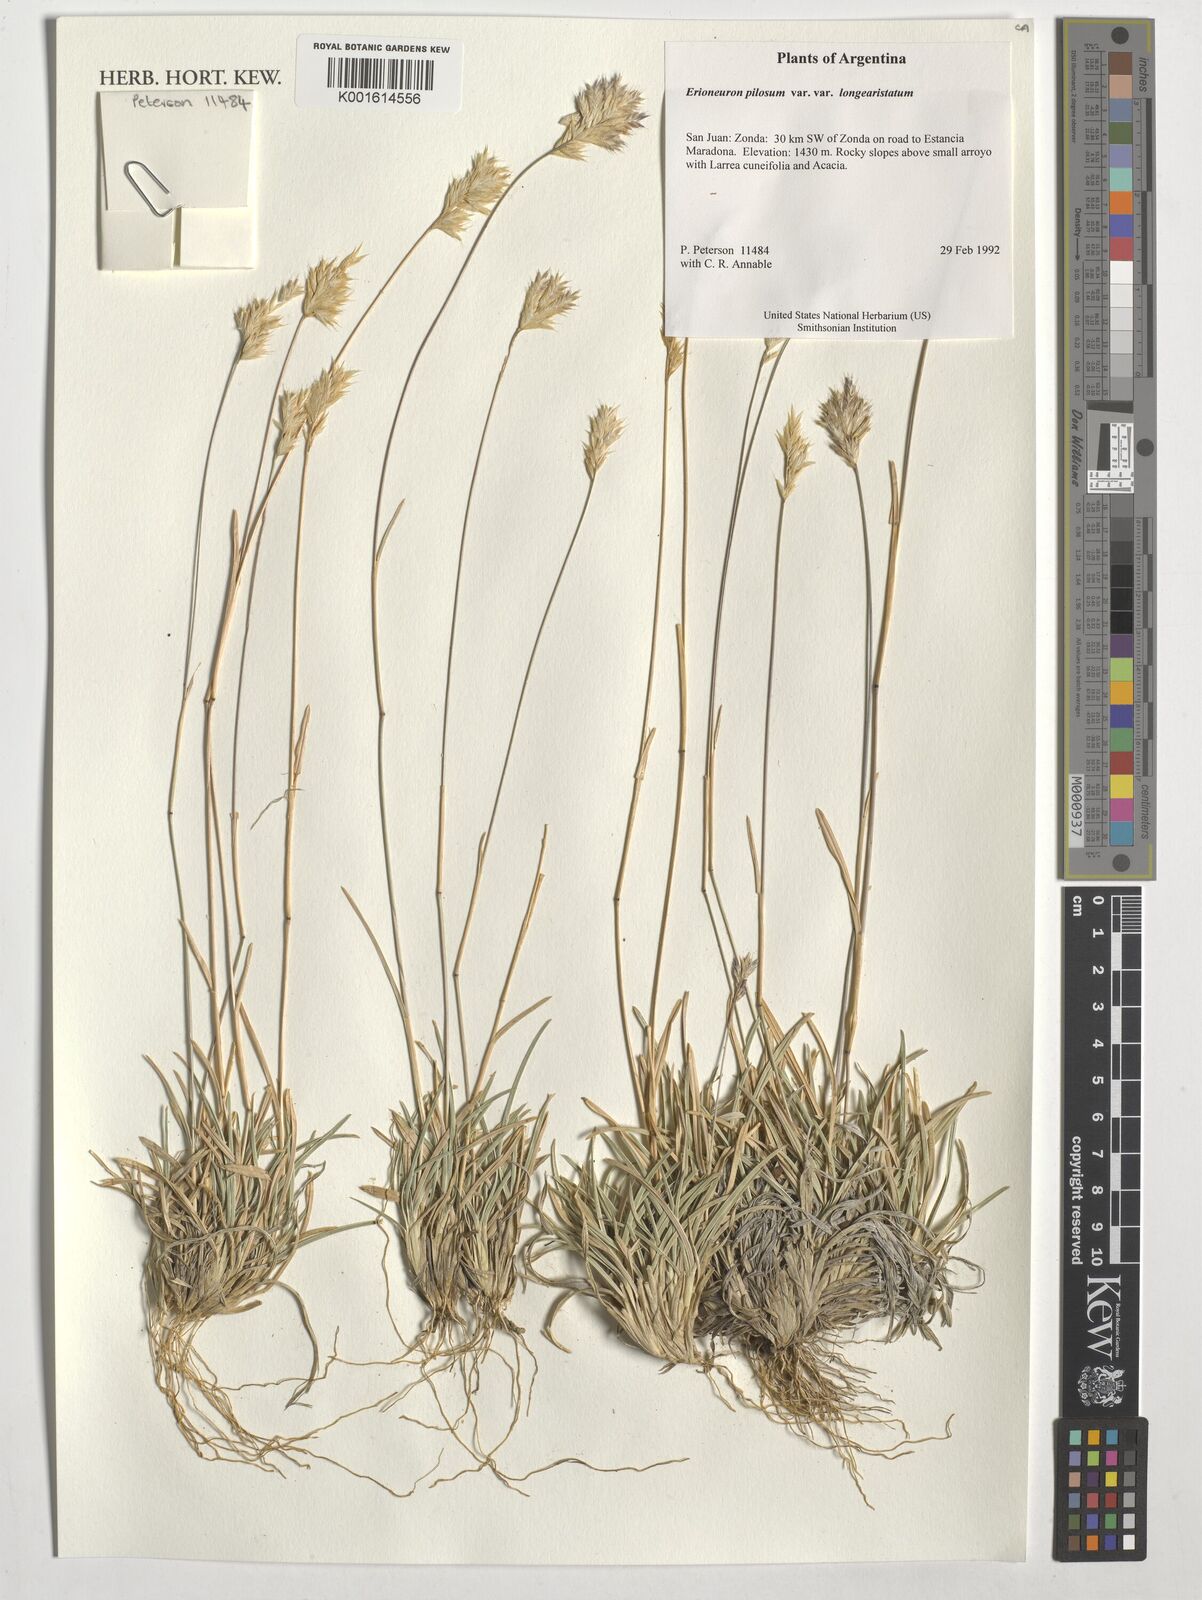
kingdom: Plantae
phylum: Tracheophyta
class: Liliopsida
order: Poales
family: Poaceae
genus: Erioneuron
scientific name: Erioneuron pilosum
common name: Hairy woolly grass
